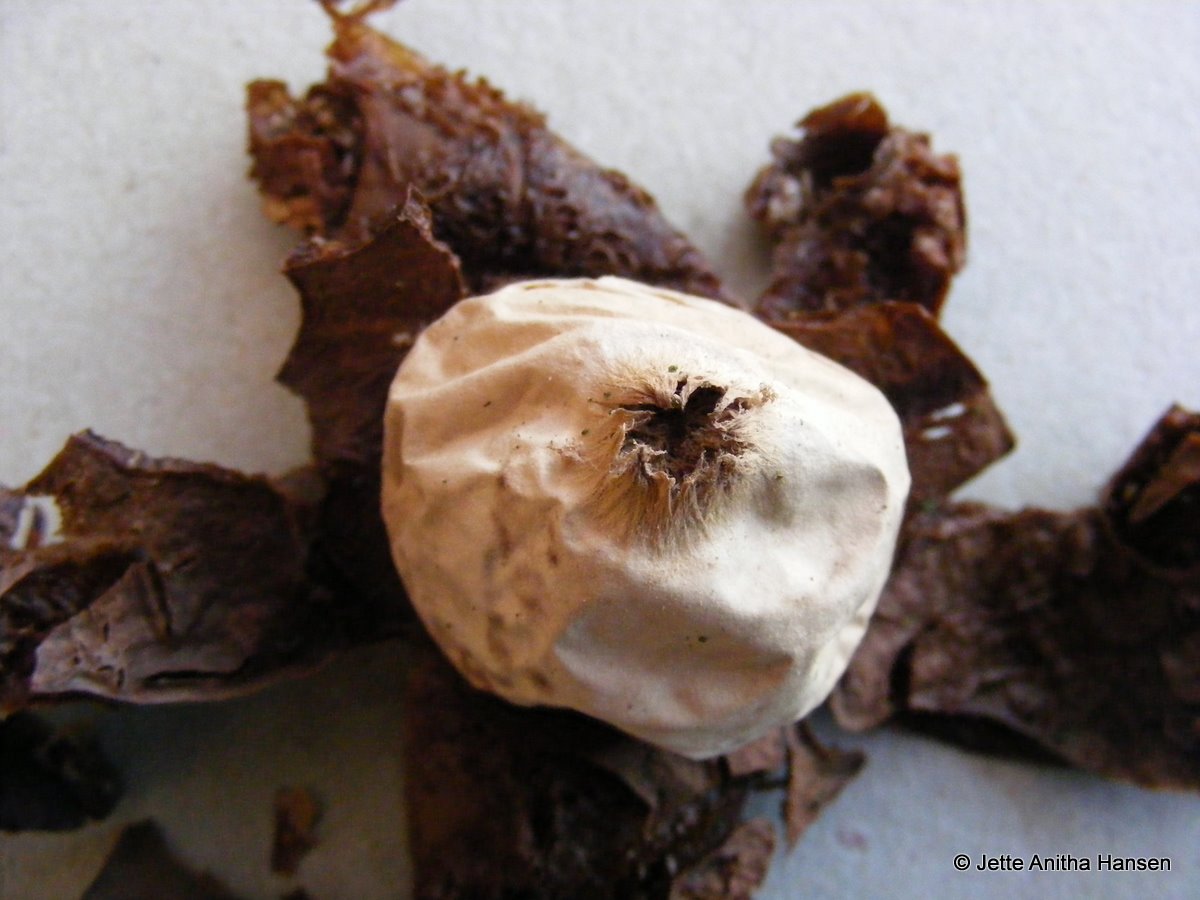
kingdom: Fungi
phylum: Basidiomycota
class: Agaricomycetes
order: Geastrales
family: Geastraceae
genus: Geastrum
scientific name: Geastrum michelianum
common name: kødet stjernebold
